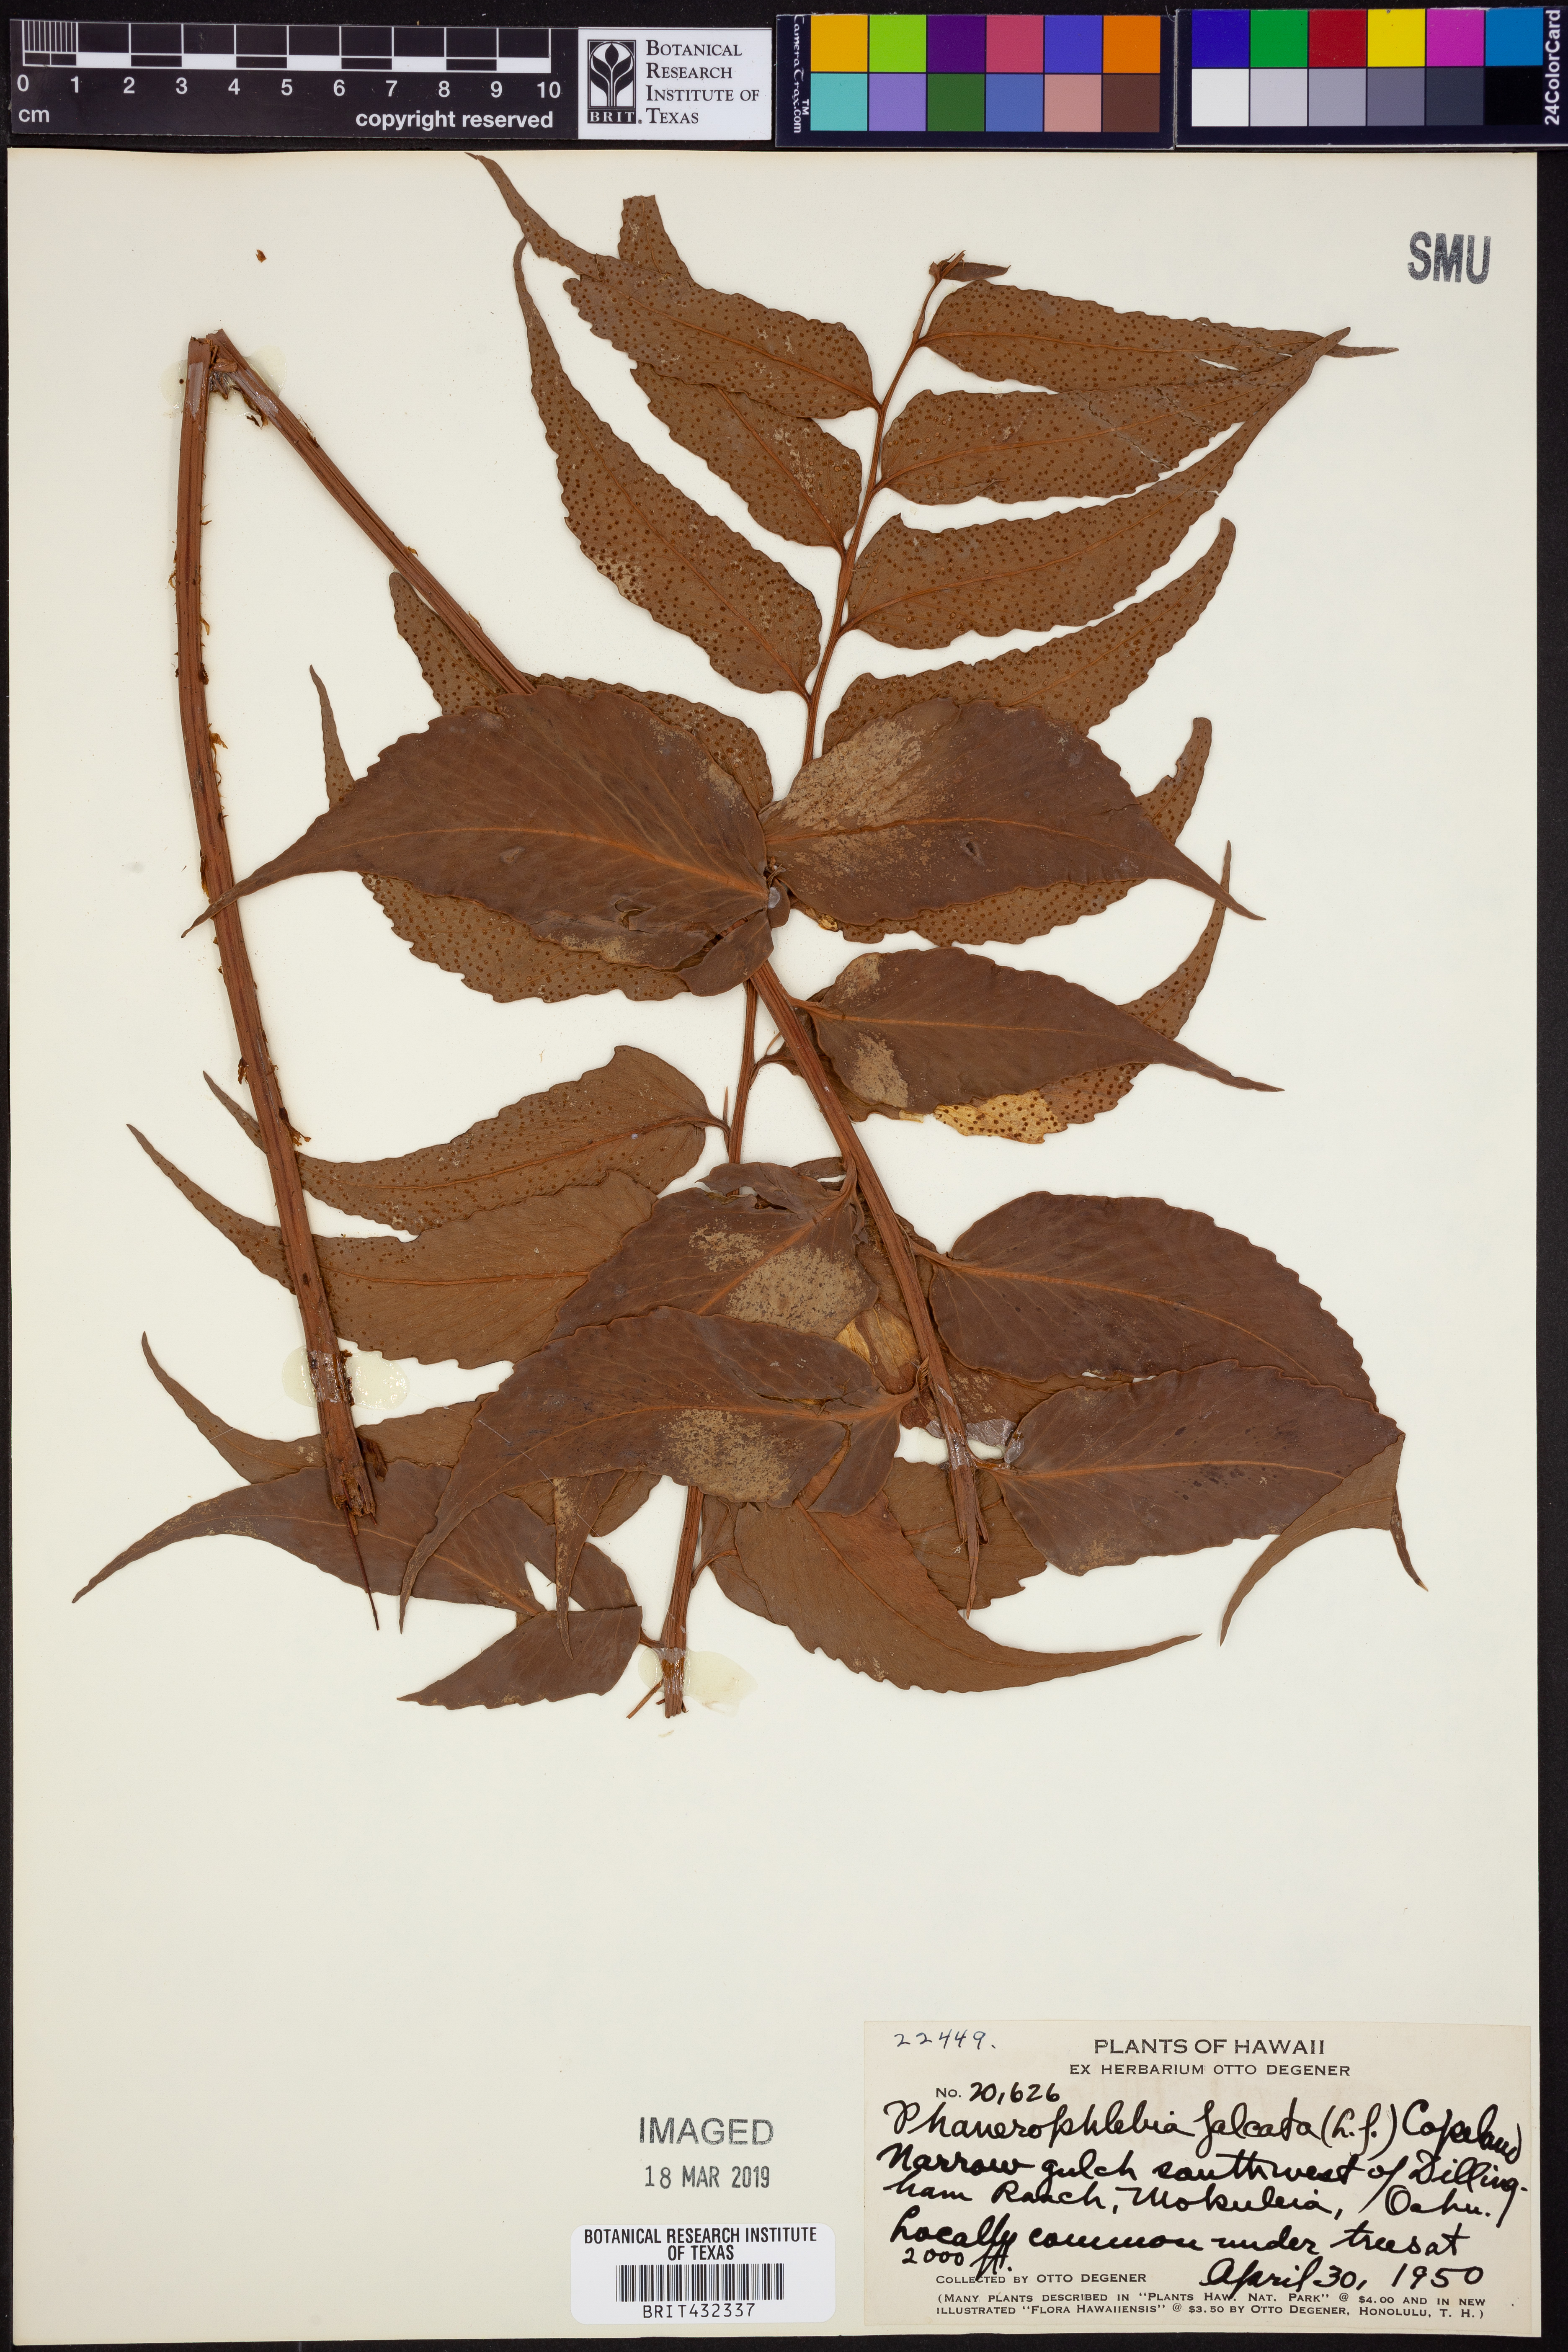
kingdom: Plantae
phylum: Tracheophyta
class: Polypodiopsida
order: Polypodiales
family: Dryopteridaceae
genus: Cyrtomium
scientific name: Cyrtomium falcatum
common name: House holly-fern
